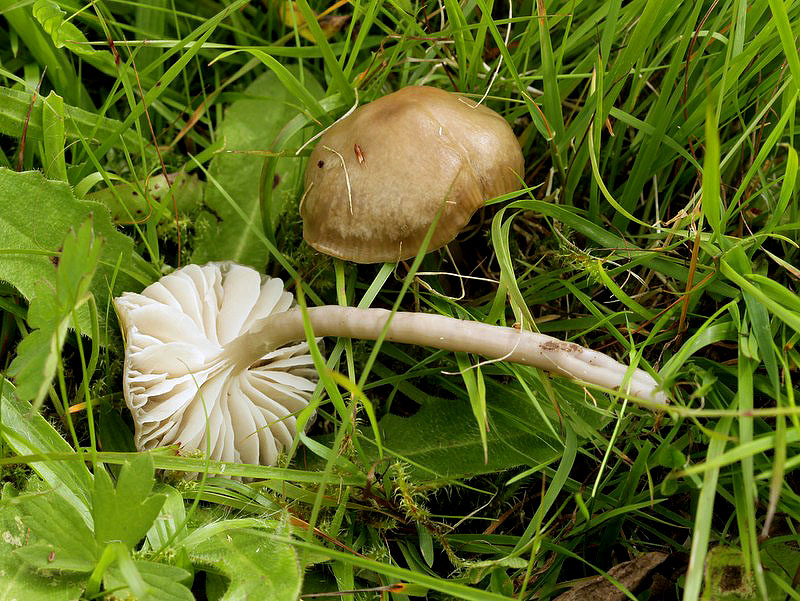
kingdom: Fungi
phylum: Basidiomycota
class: Agaricomycetes
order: Agaricales
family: Hygrophoraceae
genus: Gliophorus
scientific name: Gliophorus irrigatus
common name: slimet vokshat
